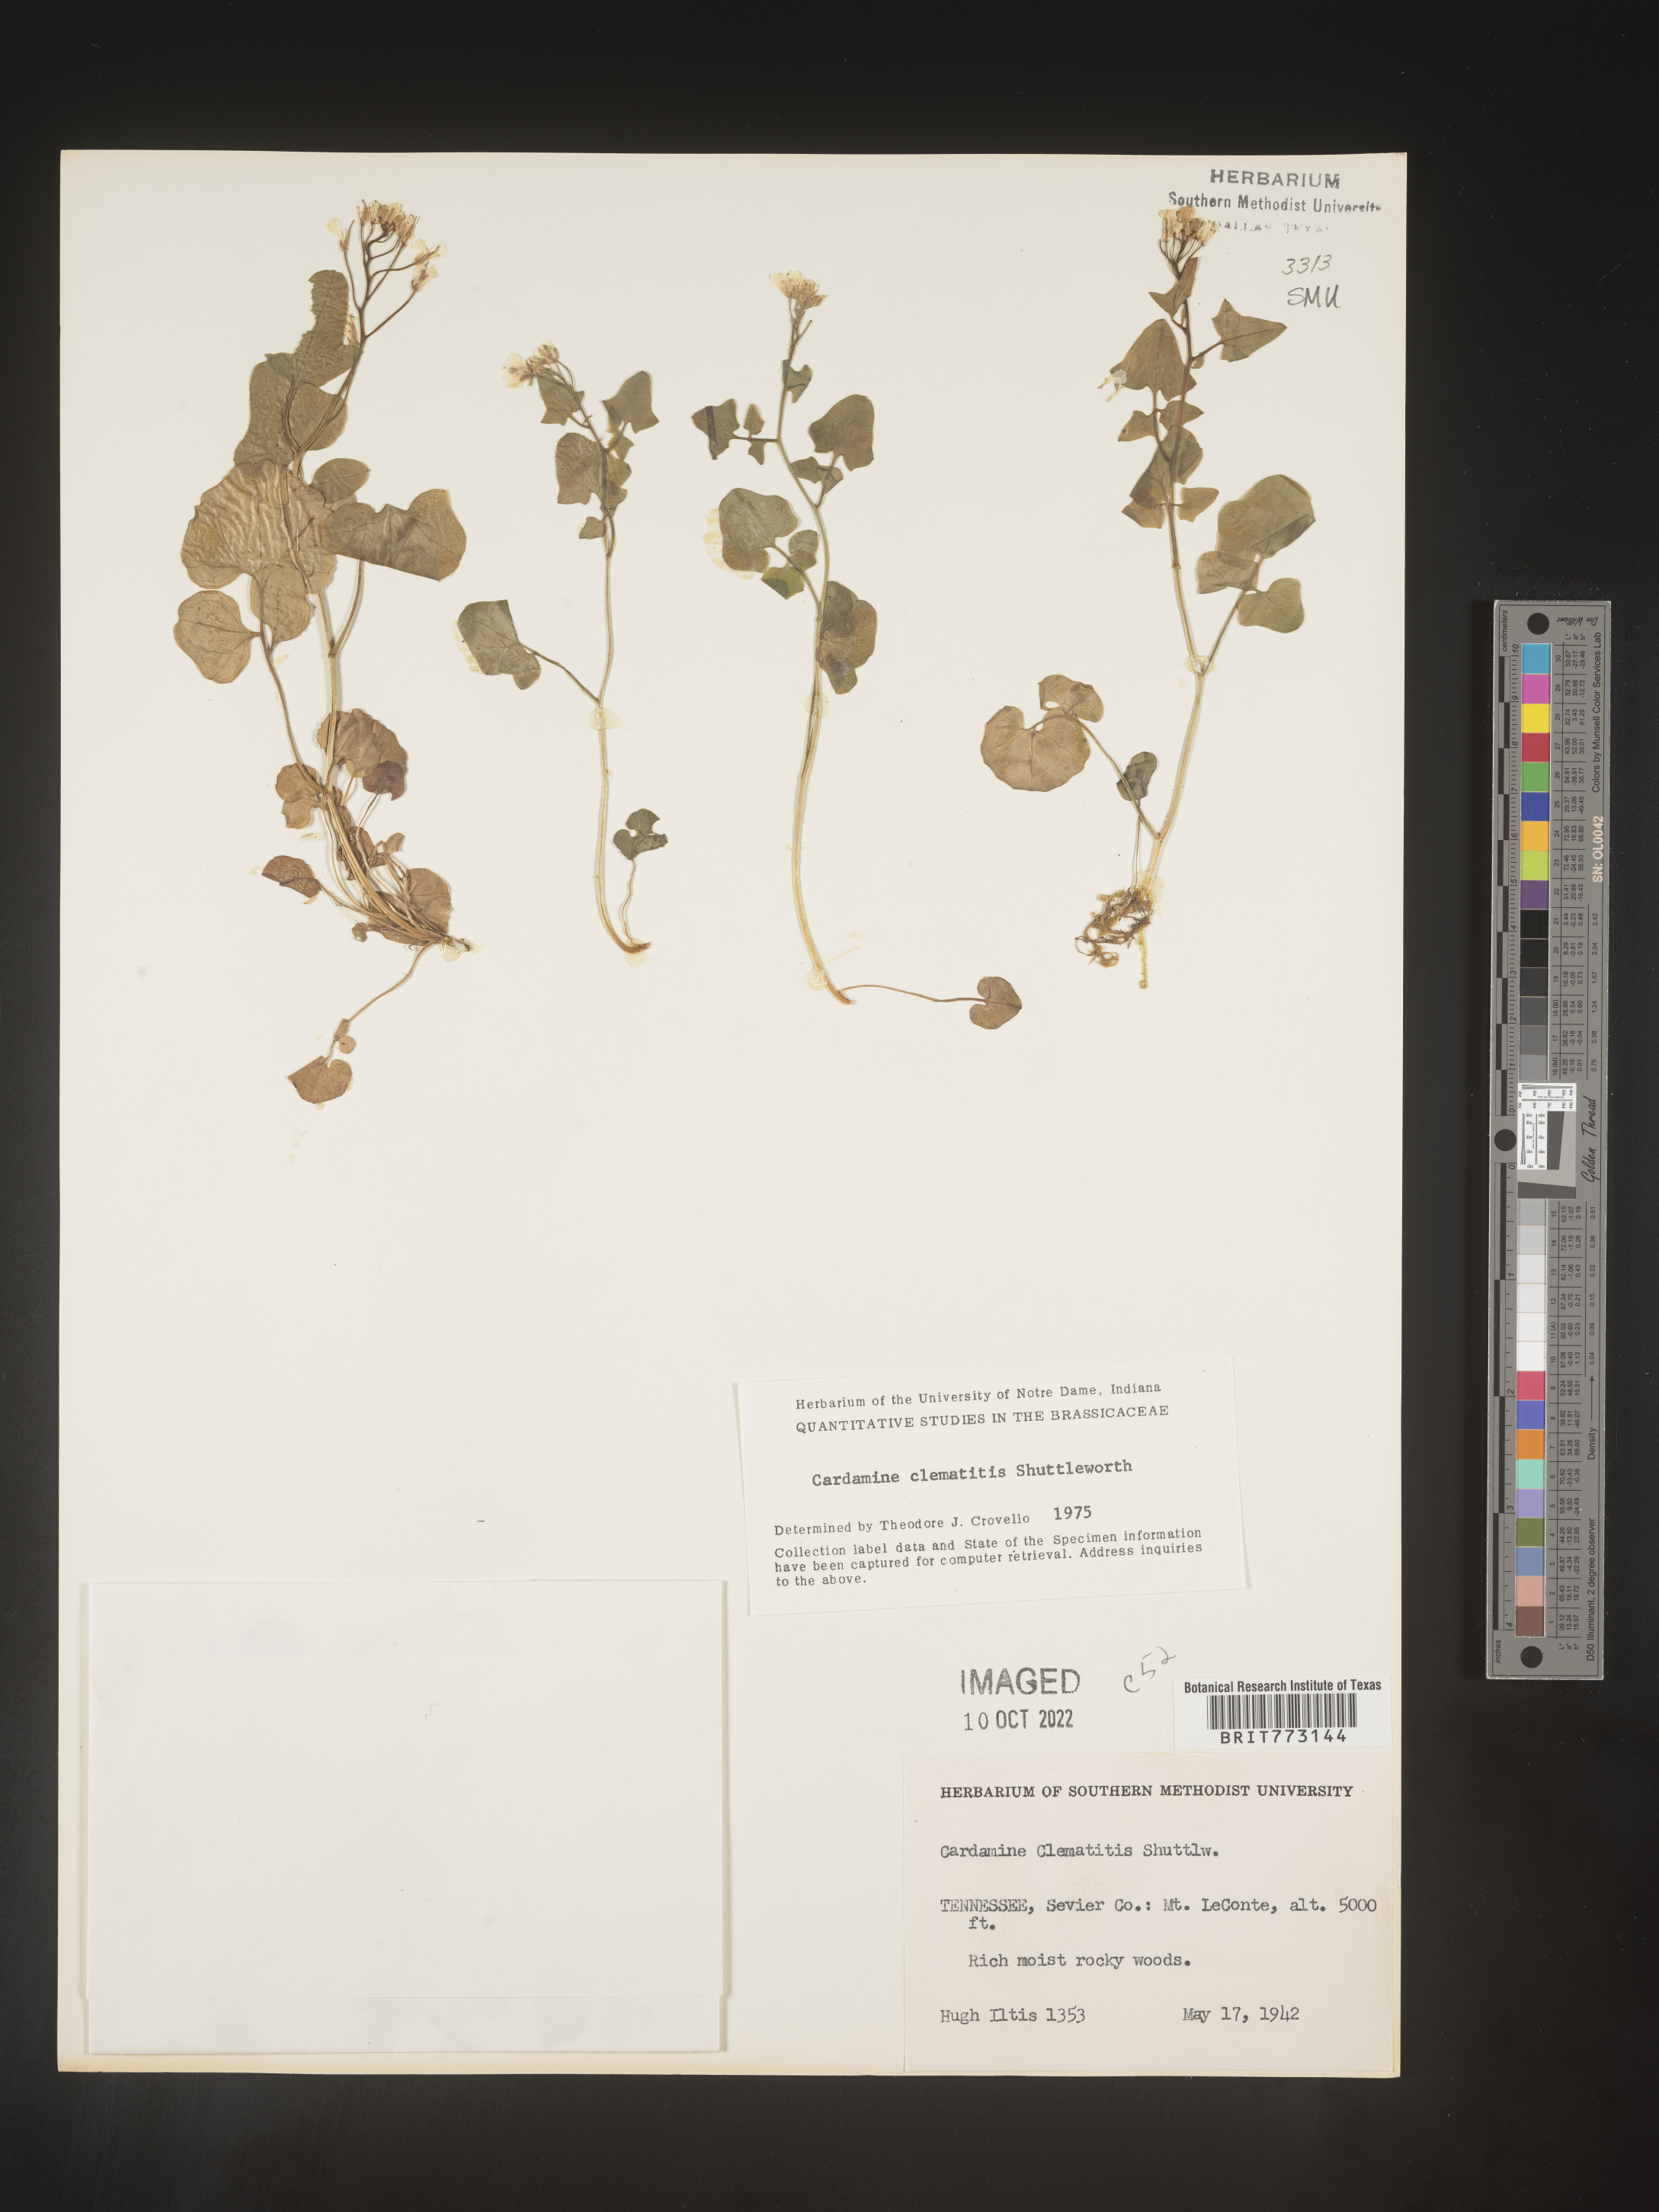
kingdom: Plantae
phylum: Tracheophyta
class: Magnoliopsida
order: Brassicales
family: Brassicaceae
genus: Cardamine
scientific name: Cardamine
